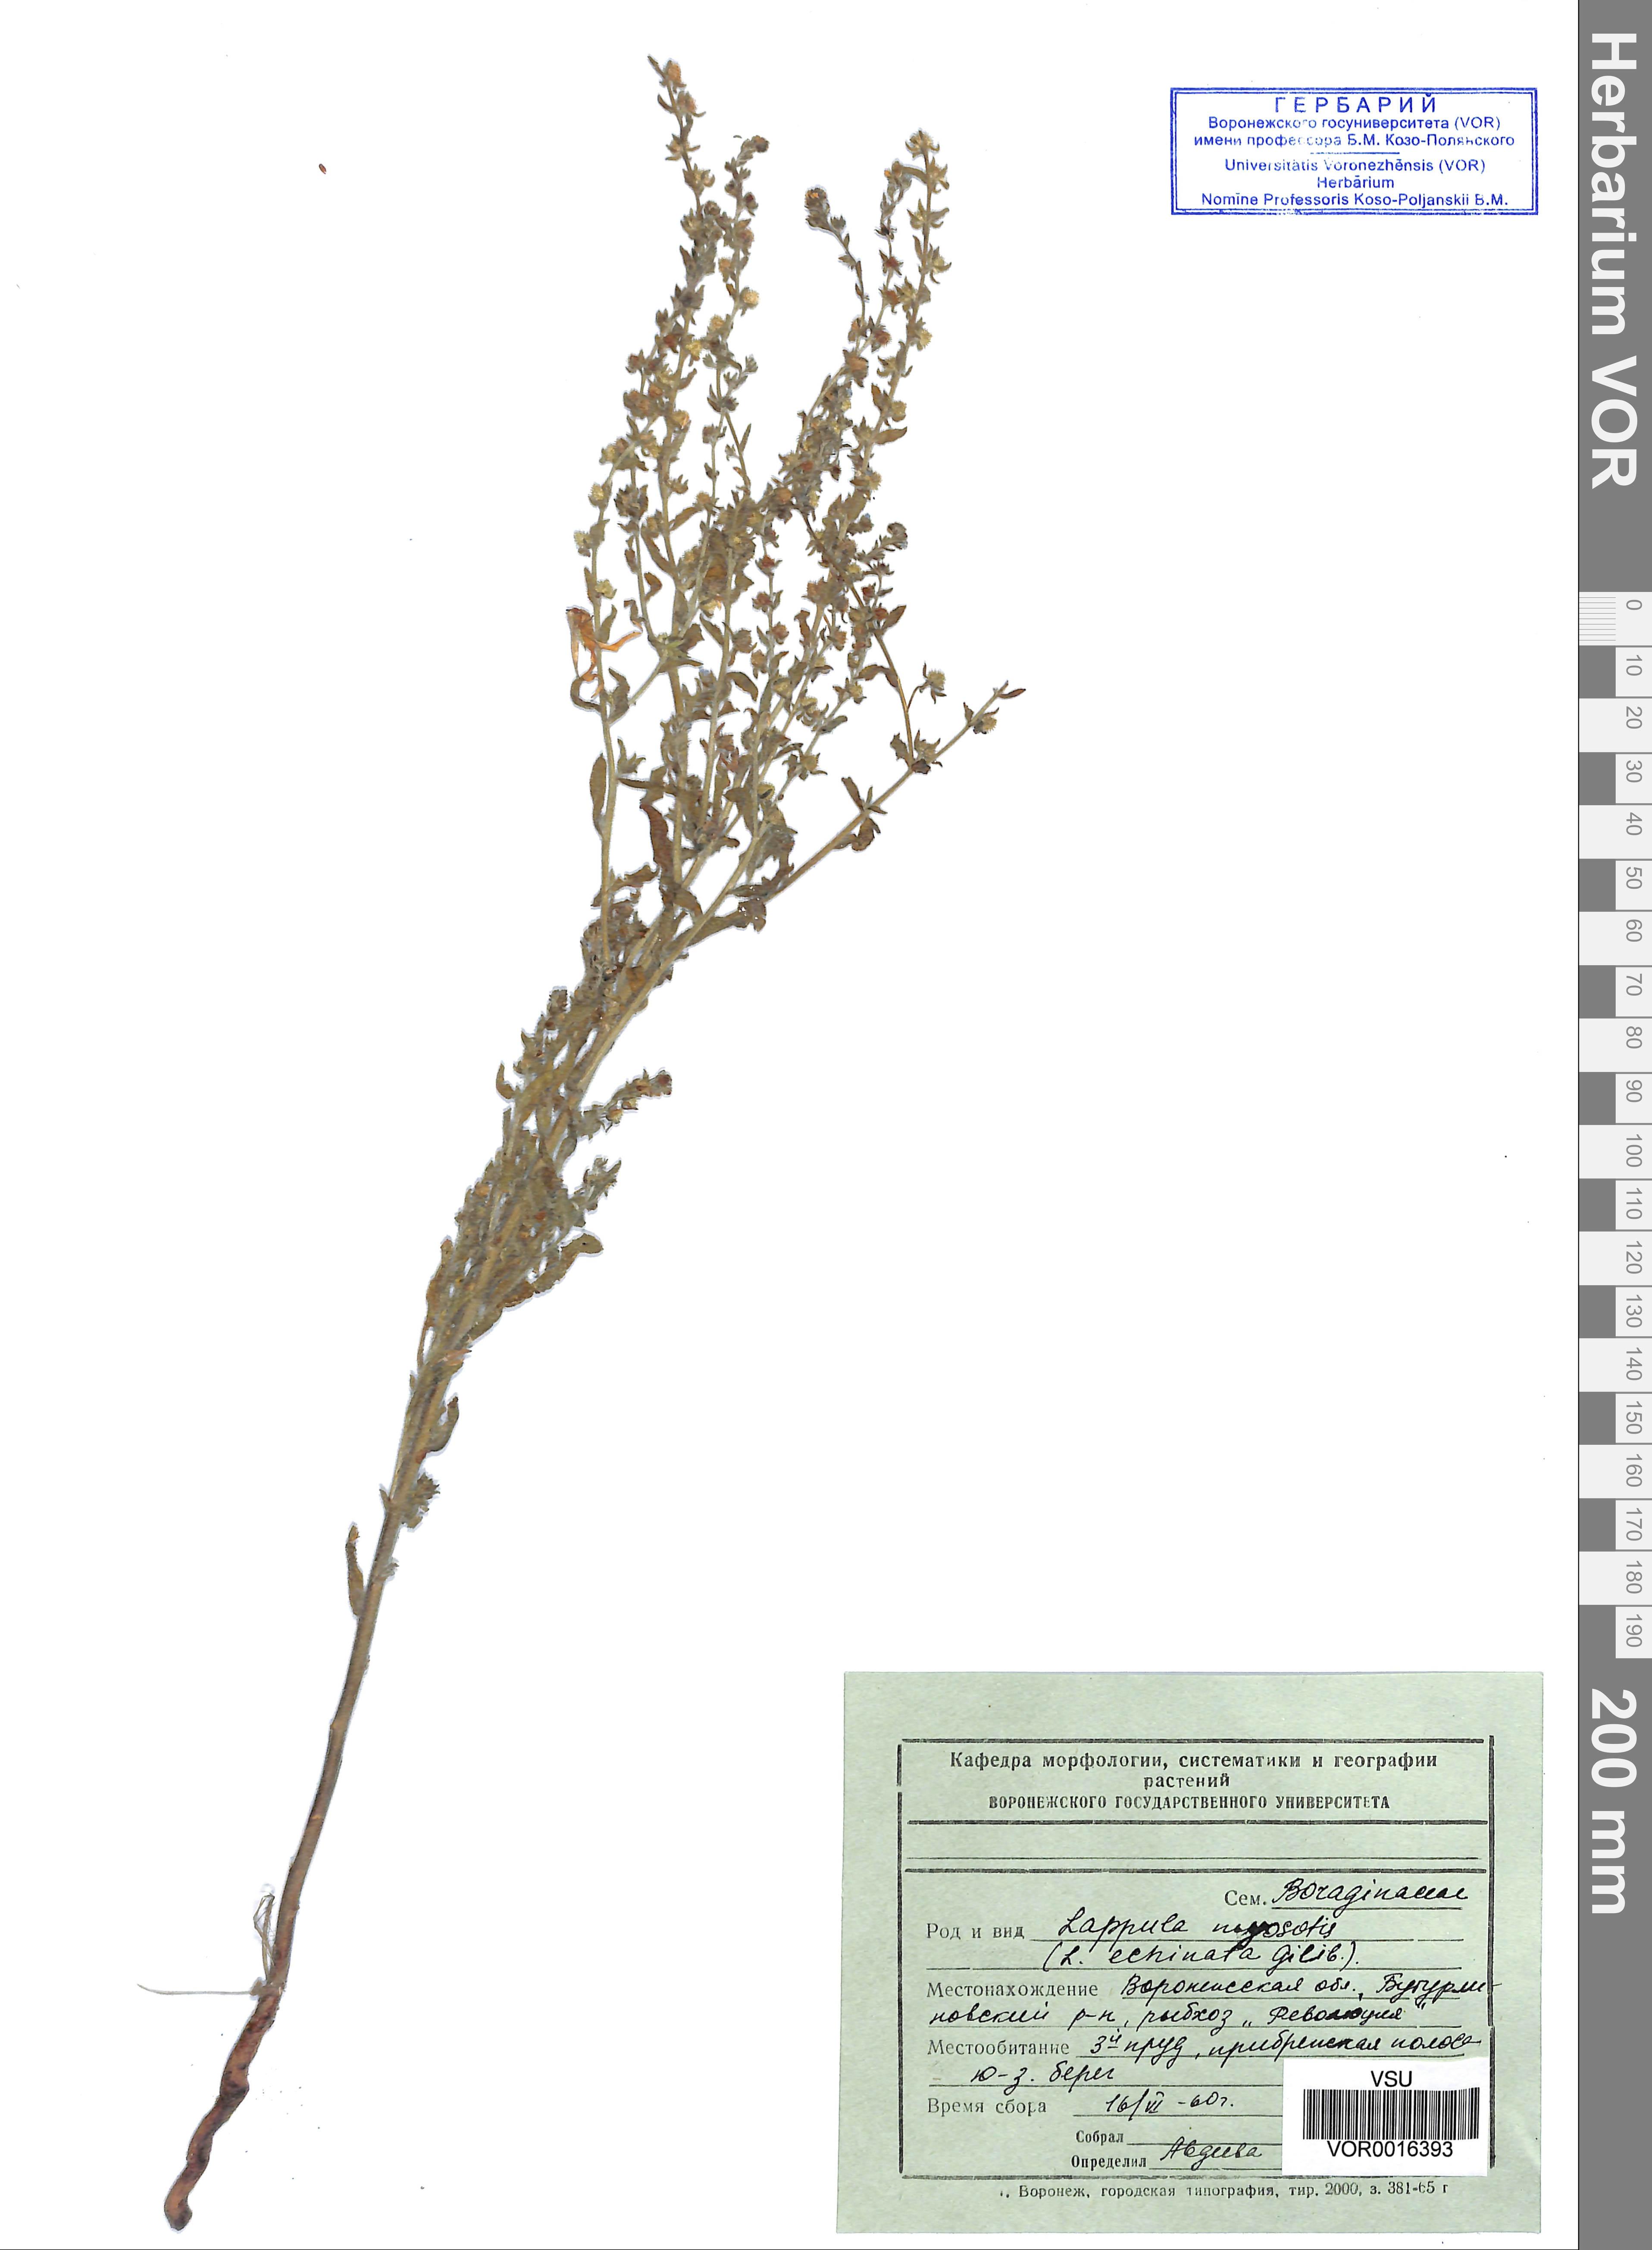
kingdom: Plantae
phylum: Tracheophyta
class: Magnoliopsida
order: Boraginales
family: Boraginaceae
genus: Lappula
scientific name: Lappula squarrosa
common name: European stickseed
